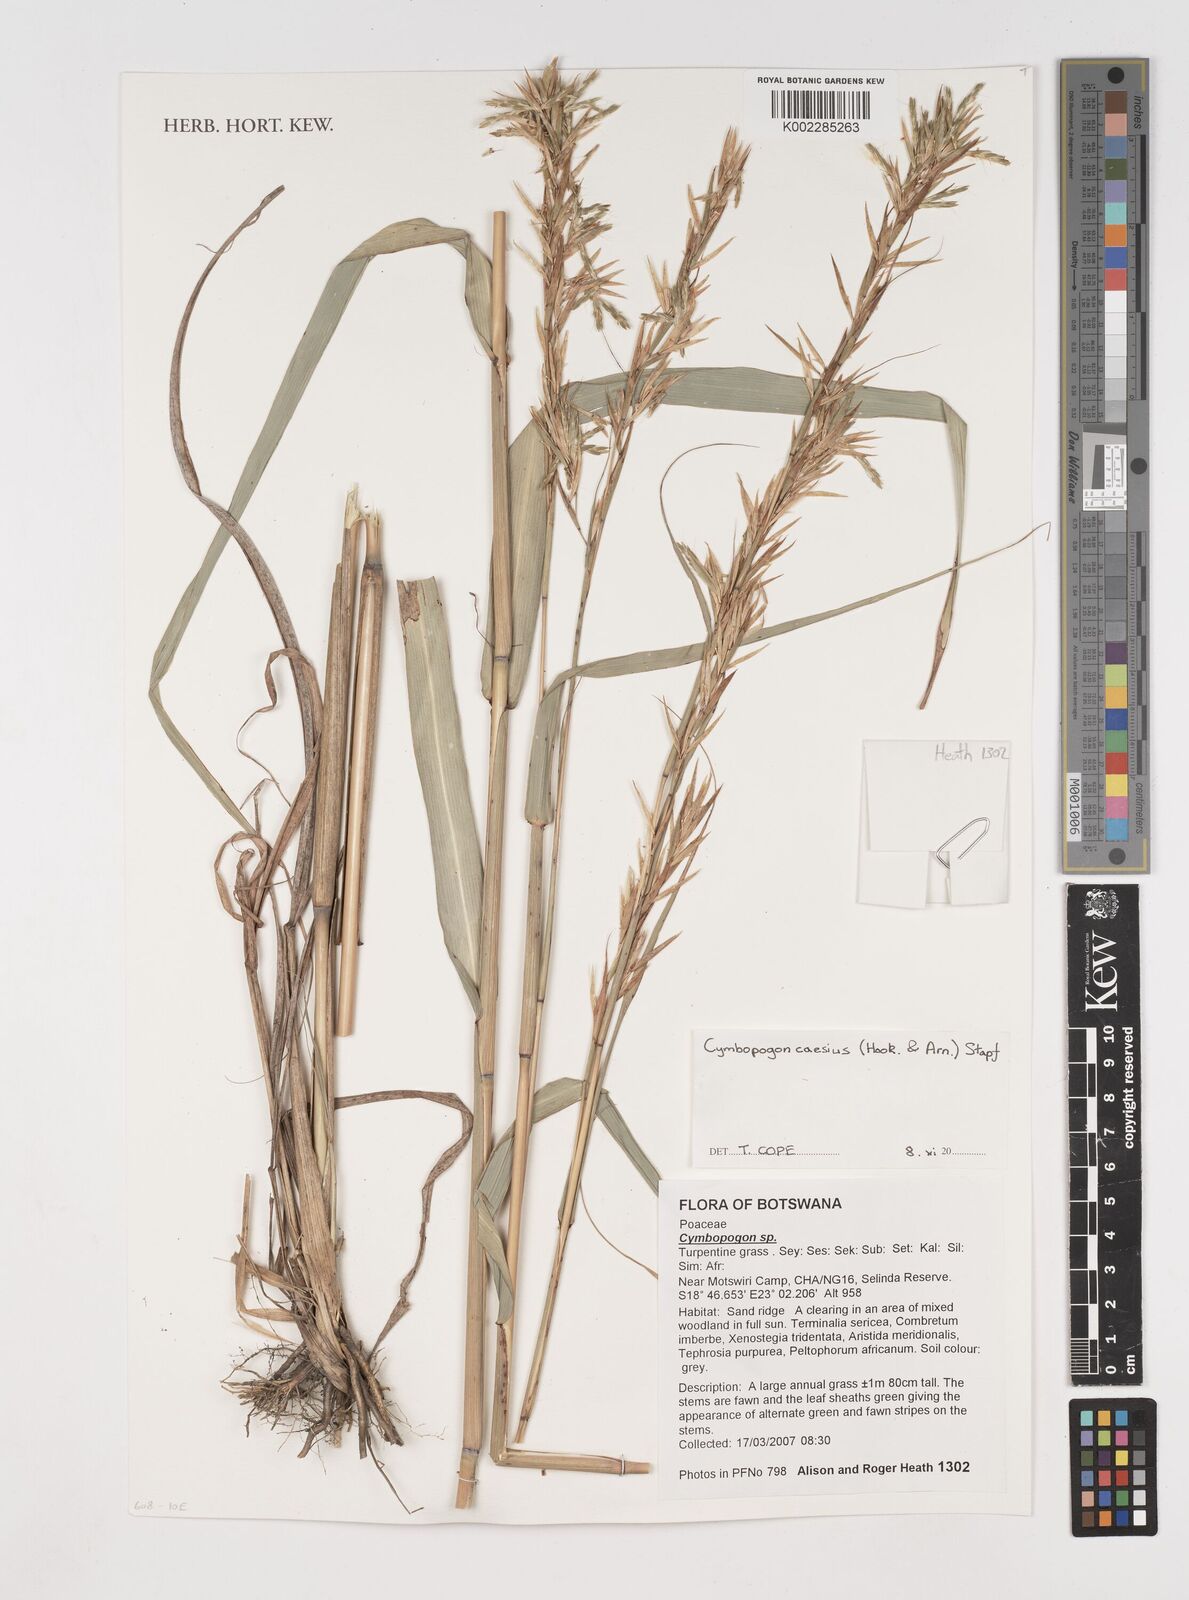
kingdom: Plantae
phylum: Tracheophyta
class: Liliopsida
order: Poales
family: Poaceae
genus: Cymbopogon
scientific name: Cymbopogon caesius
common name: Kachi grass
